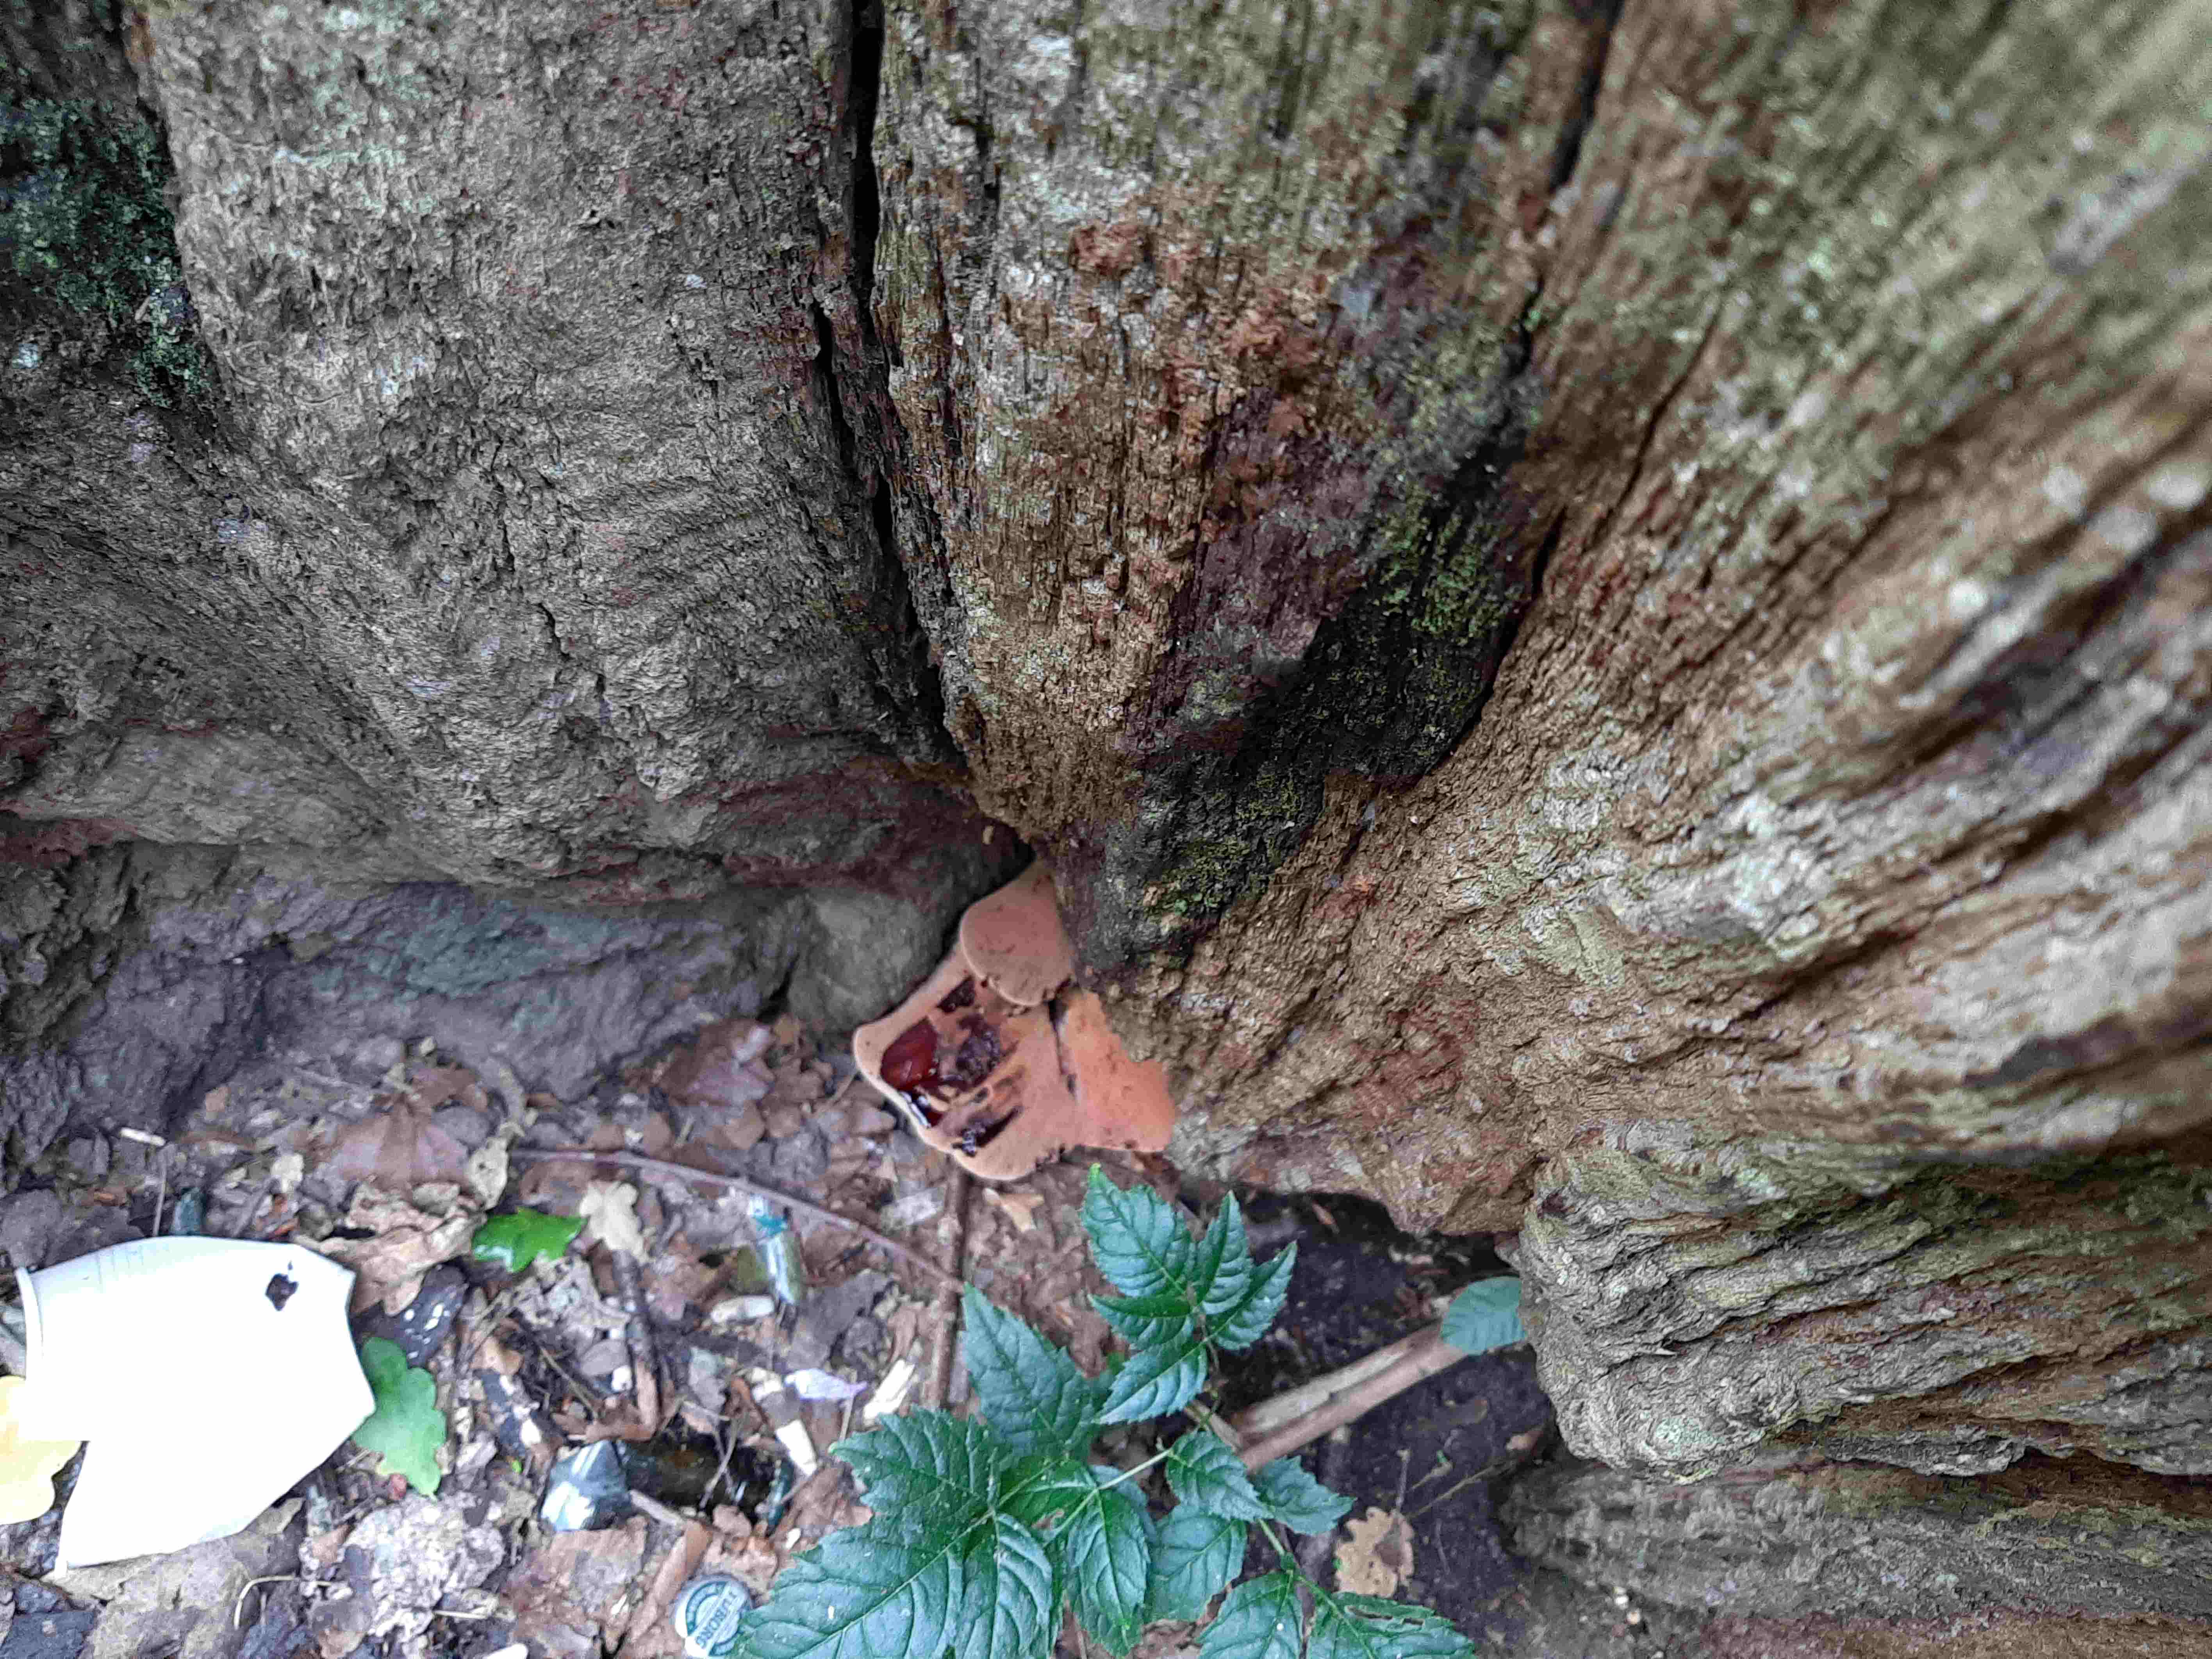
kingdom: Fungi
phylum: Basidiomycota
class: Agaricomycetes
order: Agaricales
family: Fistulinaceae
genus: Fistulina
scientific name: Fistulina hepatica
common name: oksetunge
